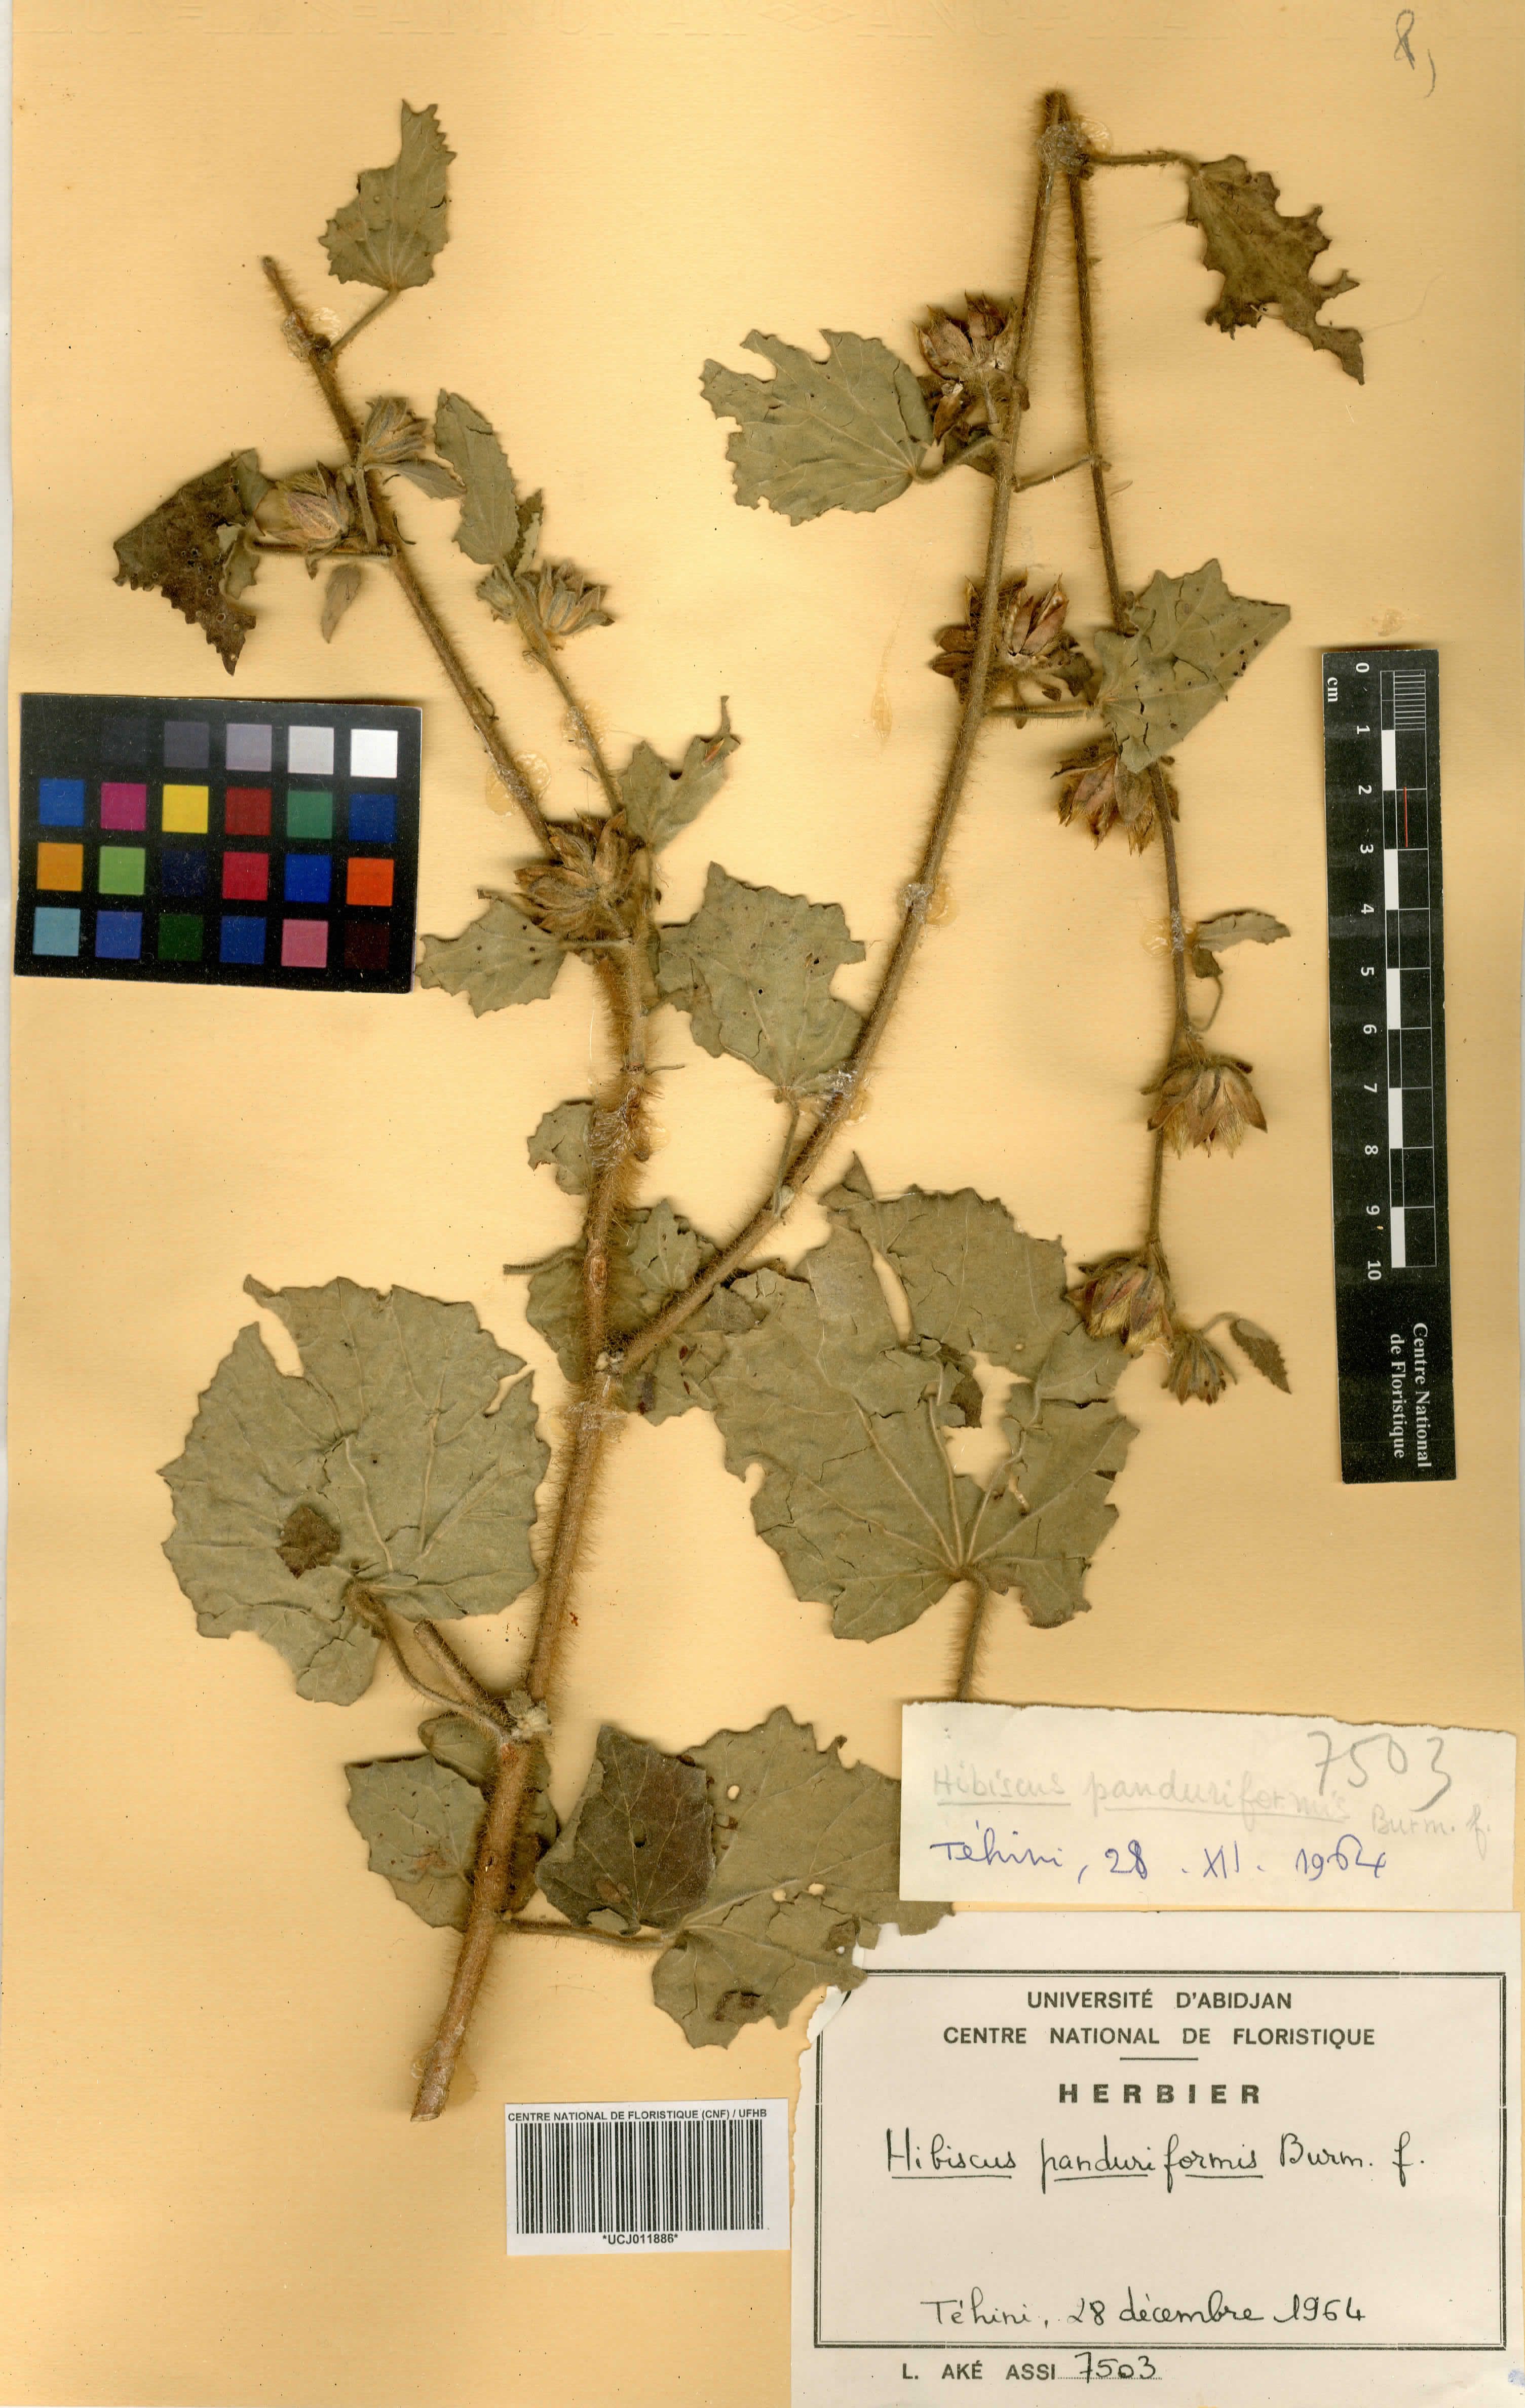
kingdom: Plantae
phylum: Tracheophyta
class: Magnoliopsida
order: Malvales
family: Malvaceae
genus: Hibiscus
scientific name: Hibiscus panduriformis
